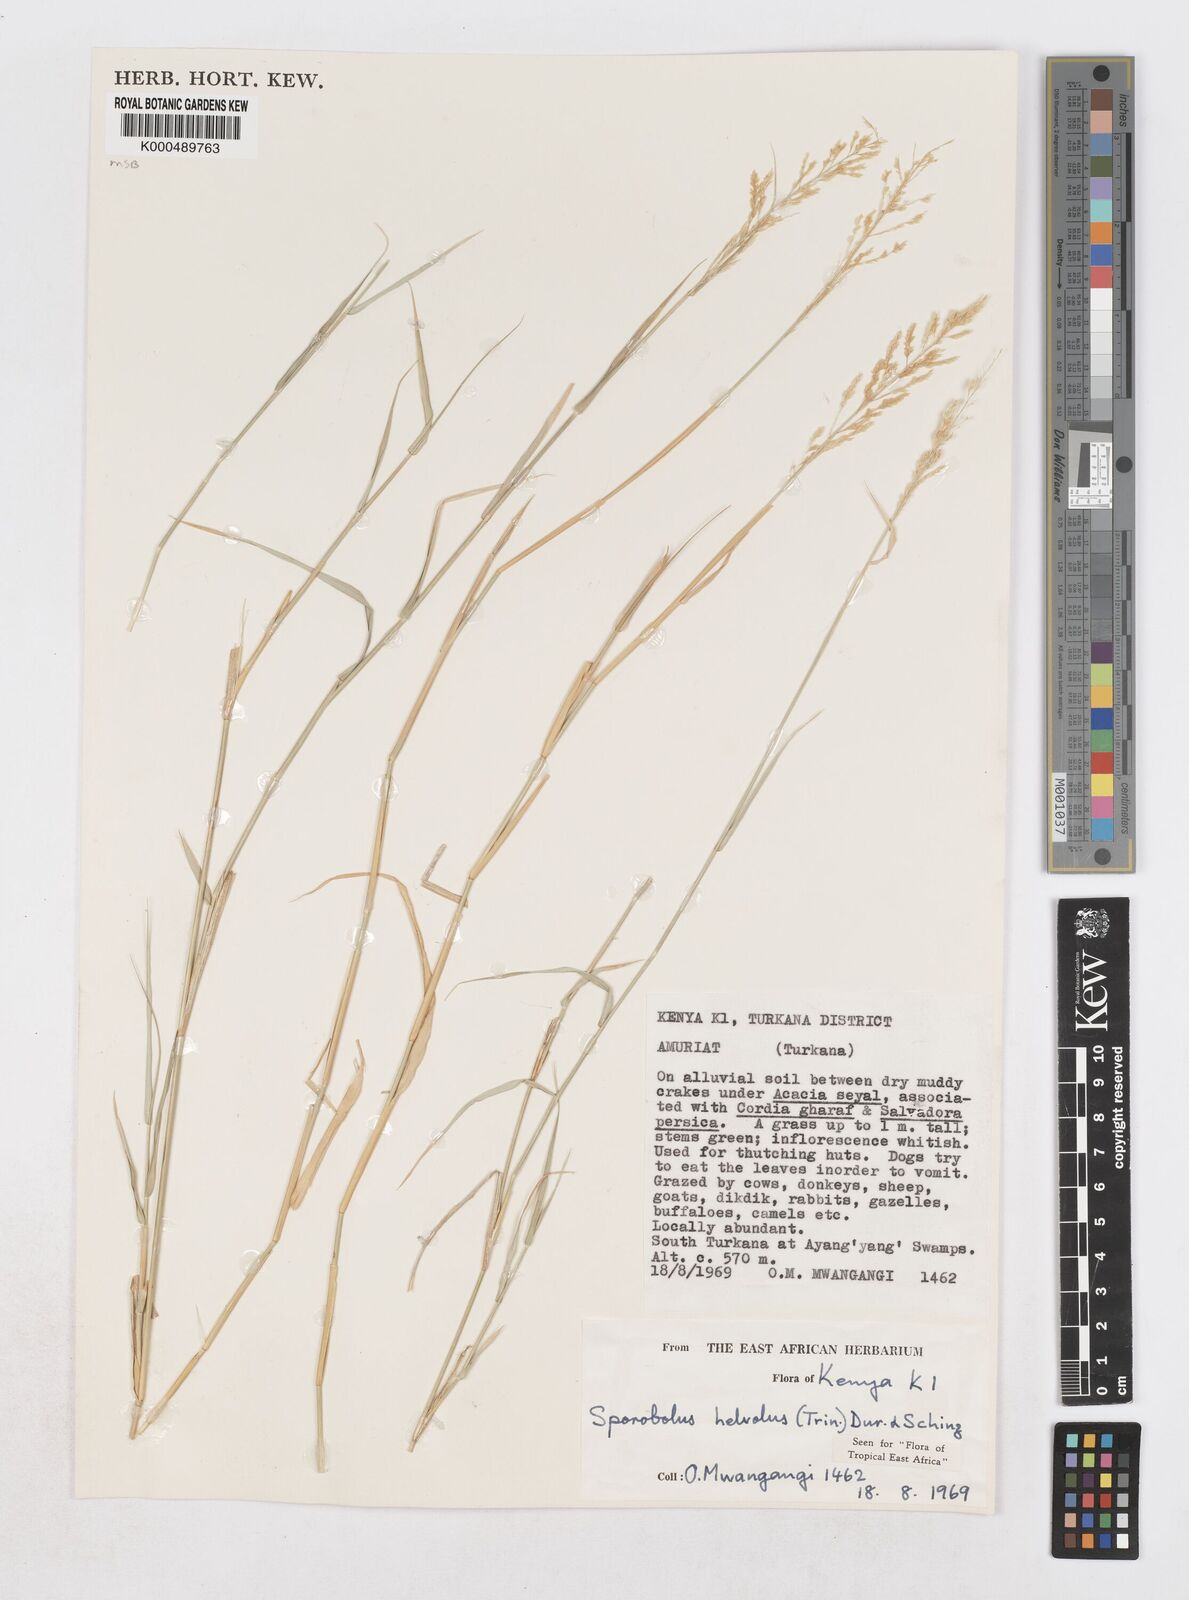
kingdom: Plantae
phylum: Tracheophyta
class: Liliopsida
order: Poales
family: Poaceae
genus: Sporobolus
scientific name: Sporobolus helvolus
